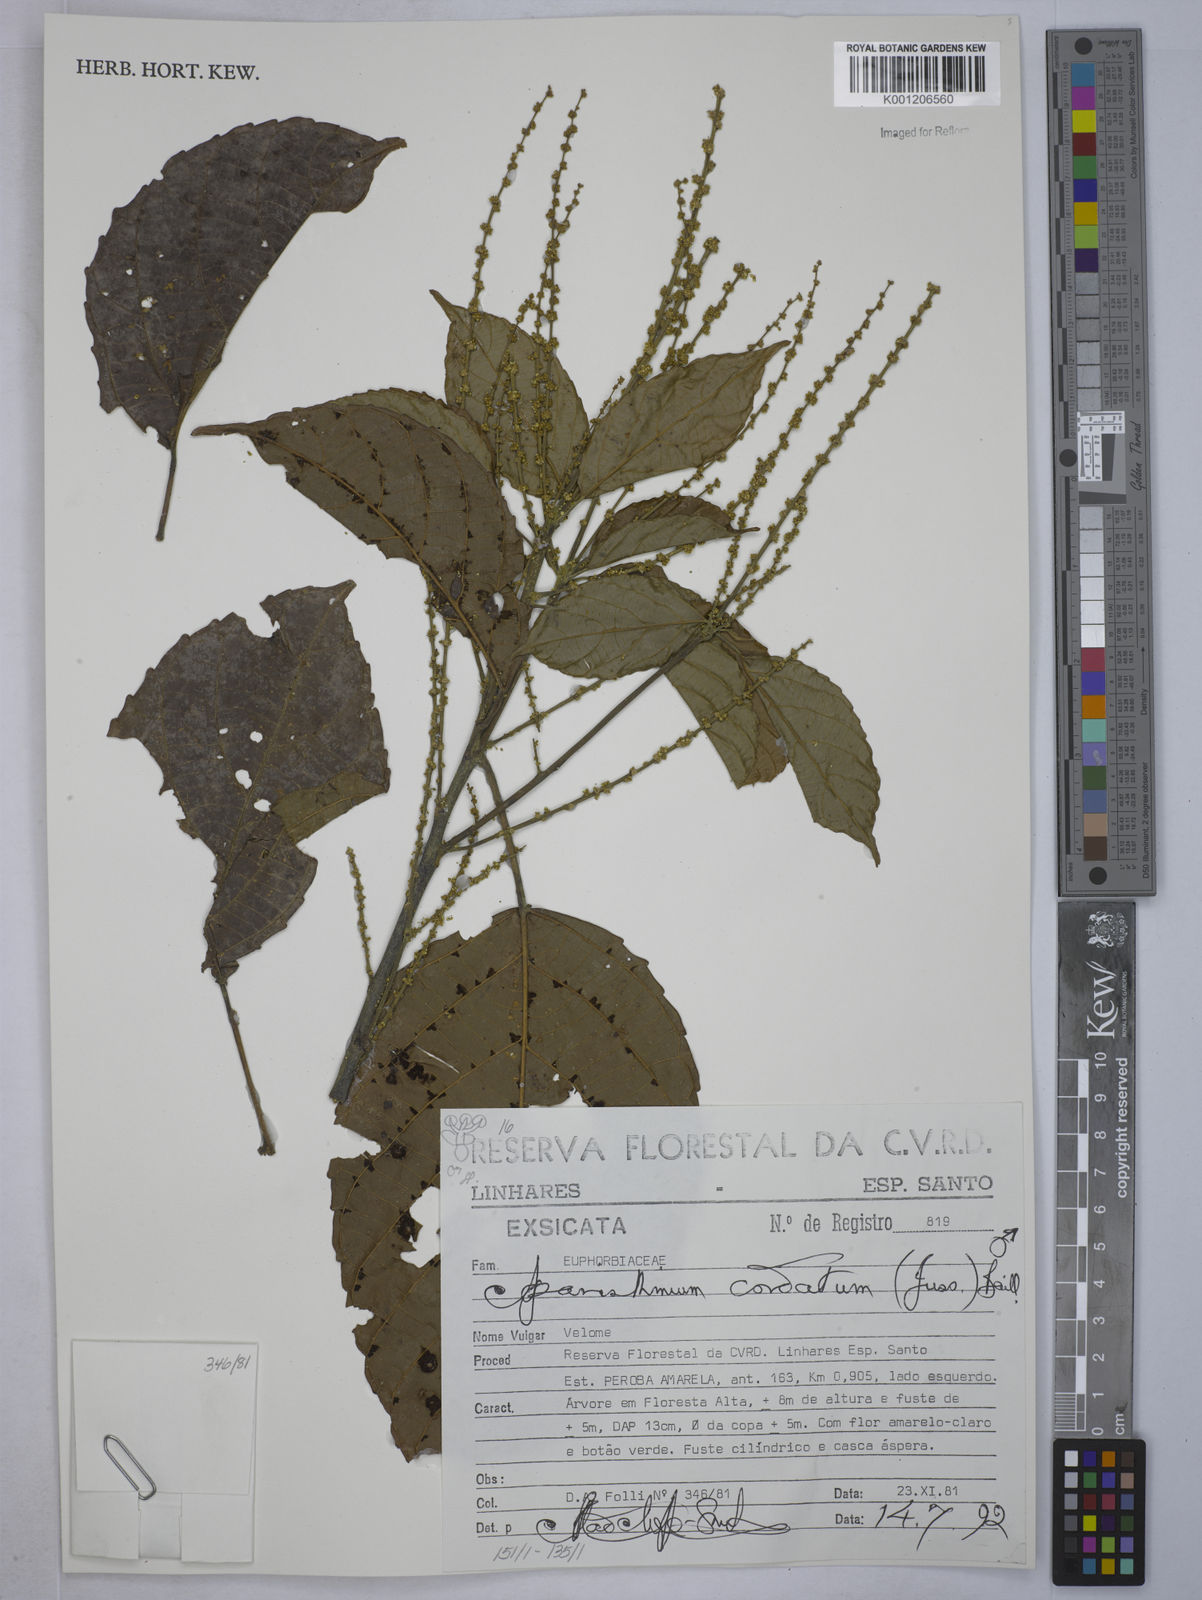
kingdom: Plantae
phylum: Tracheophyta
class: Magnoliopsida
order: Malpighiales
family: Euphorbiaceae
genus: Aparisthmium
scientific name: Aparisthmium cordatum
